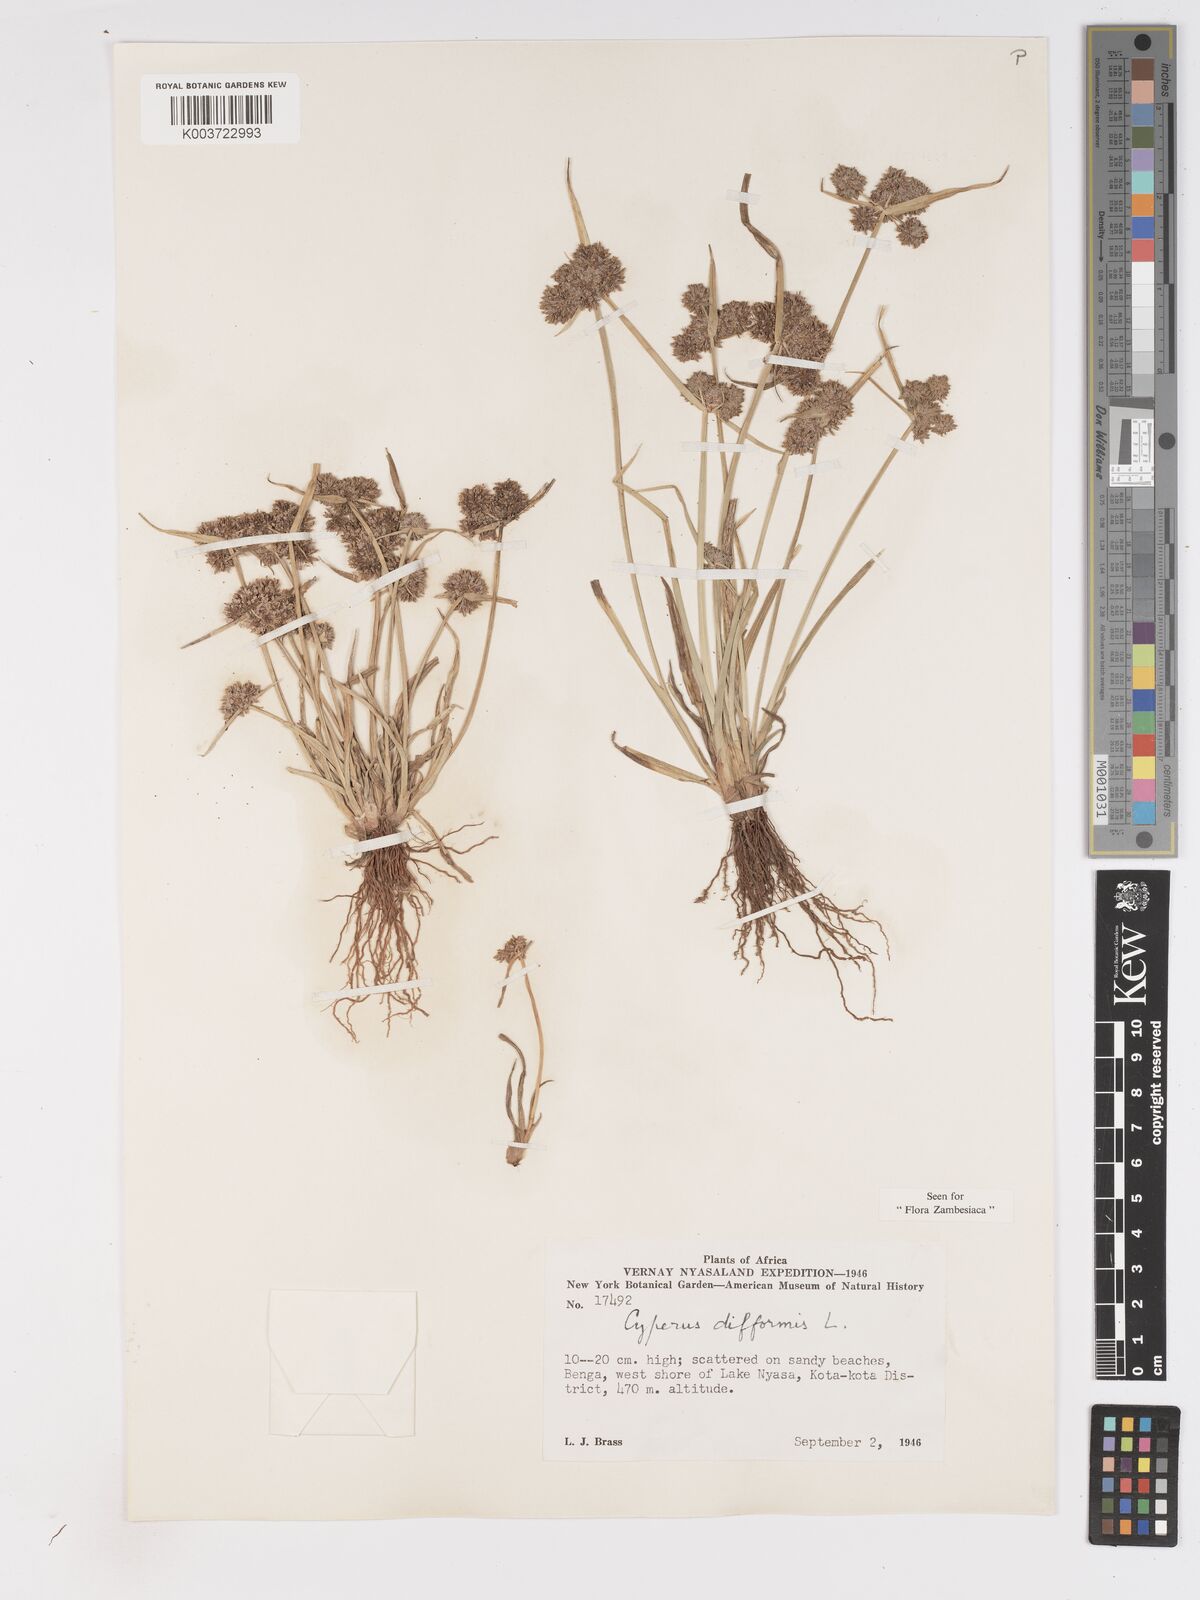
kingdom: Plantae
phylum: Tracheophyta
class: Liliopsida
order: Poales
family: Cyperaceae
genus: Cyperus
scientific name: Cyperus difformis
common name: Variable flatsedge
